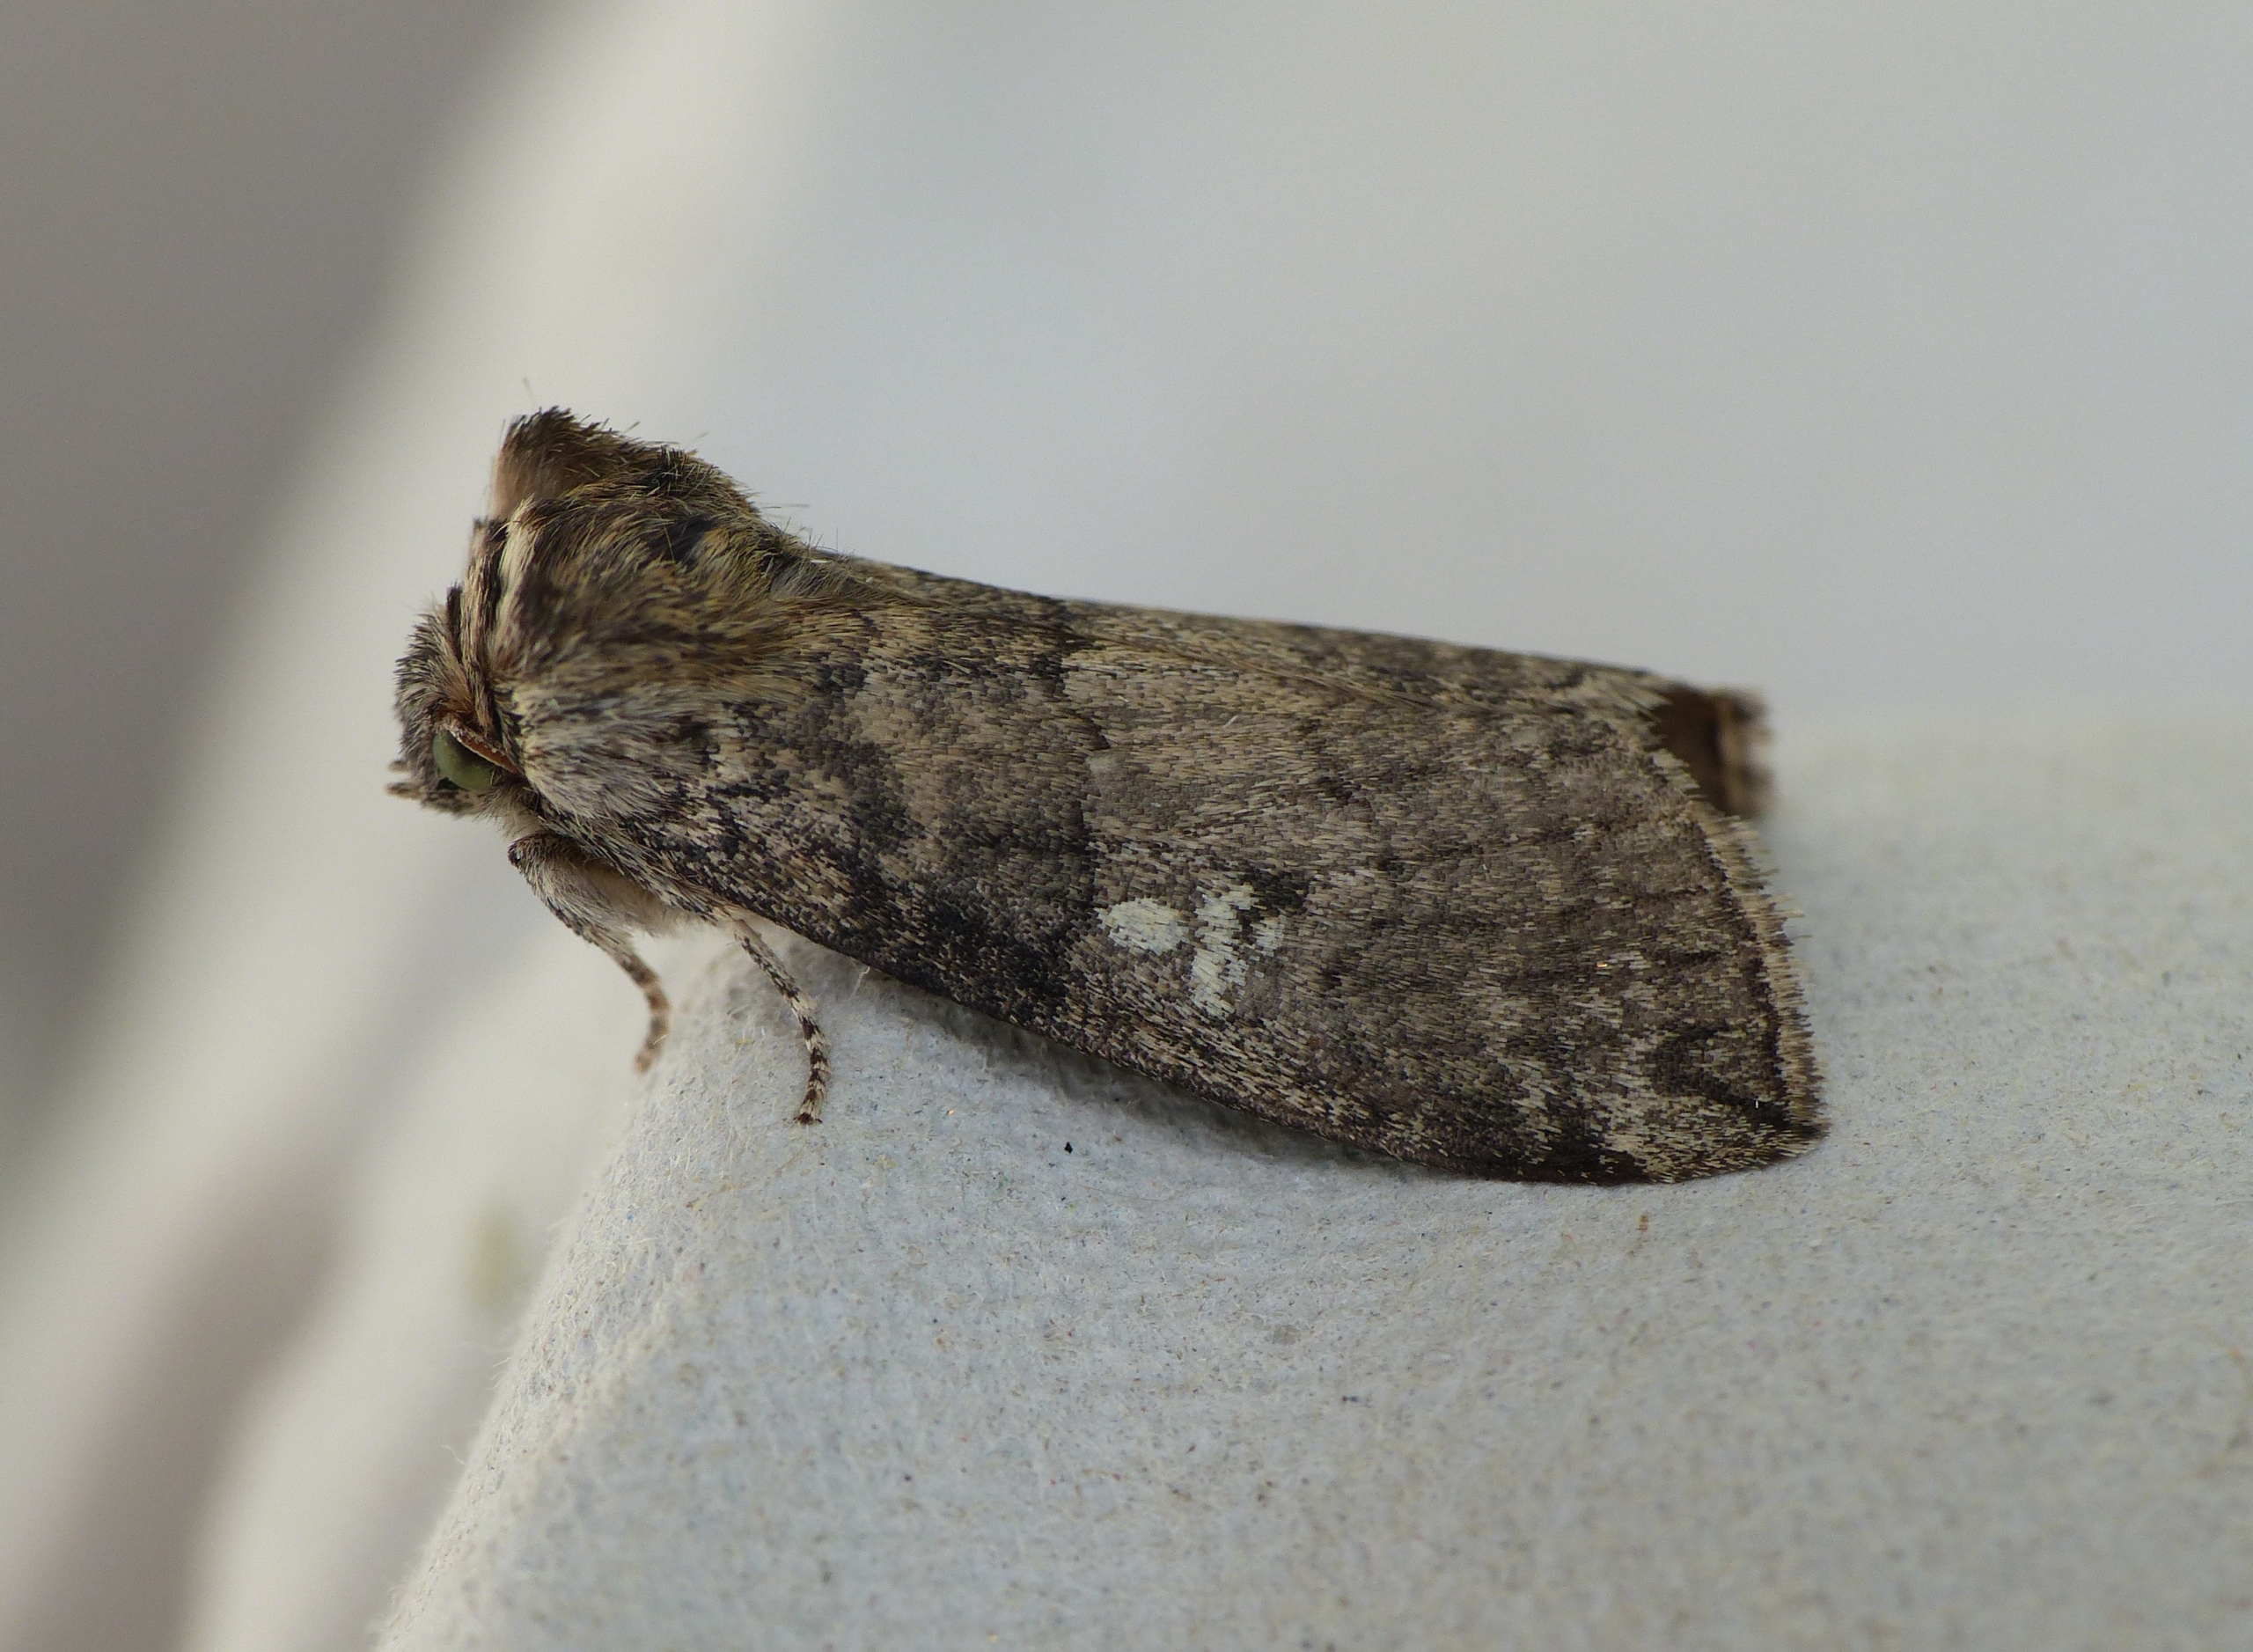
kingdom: Animalia
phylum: Arthropoda
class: Insecta
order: Lepidoptera
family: Drepanidae
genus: Tethea
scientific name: Tethea or
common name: Bogstav-uglespinder
